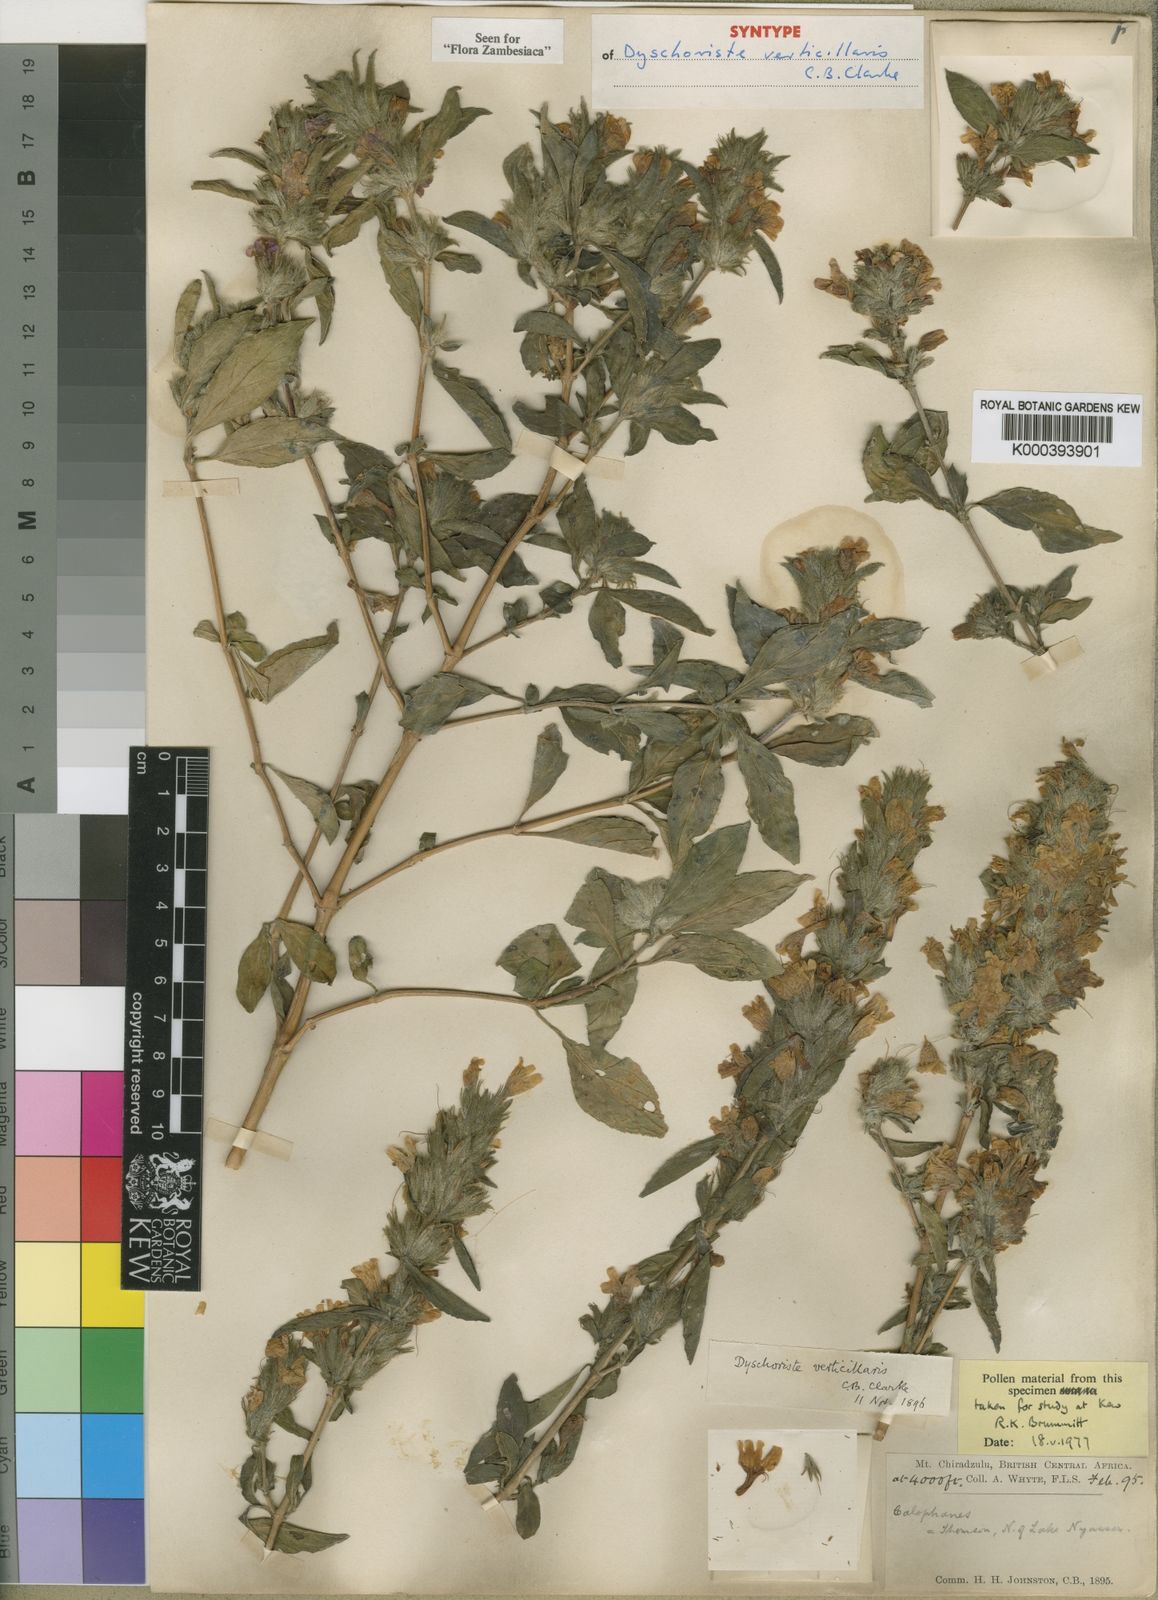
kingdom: Plantae
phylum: Tracheophyta
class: Magnoliopsida
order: Lamiales
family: Acanthaceae
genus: Dyschoriste
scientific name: Dyschoriste trichocalyx
